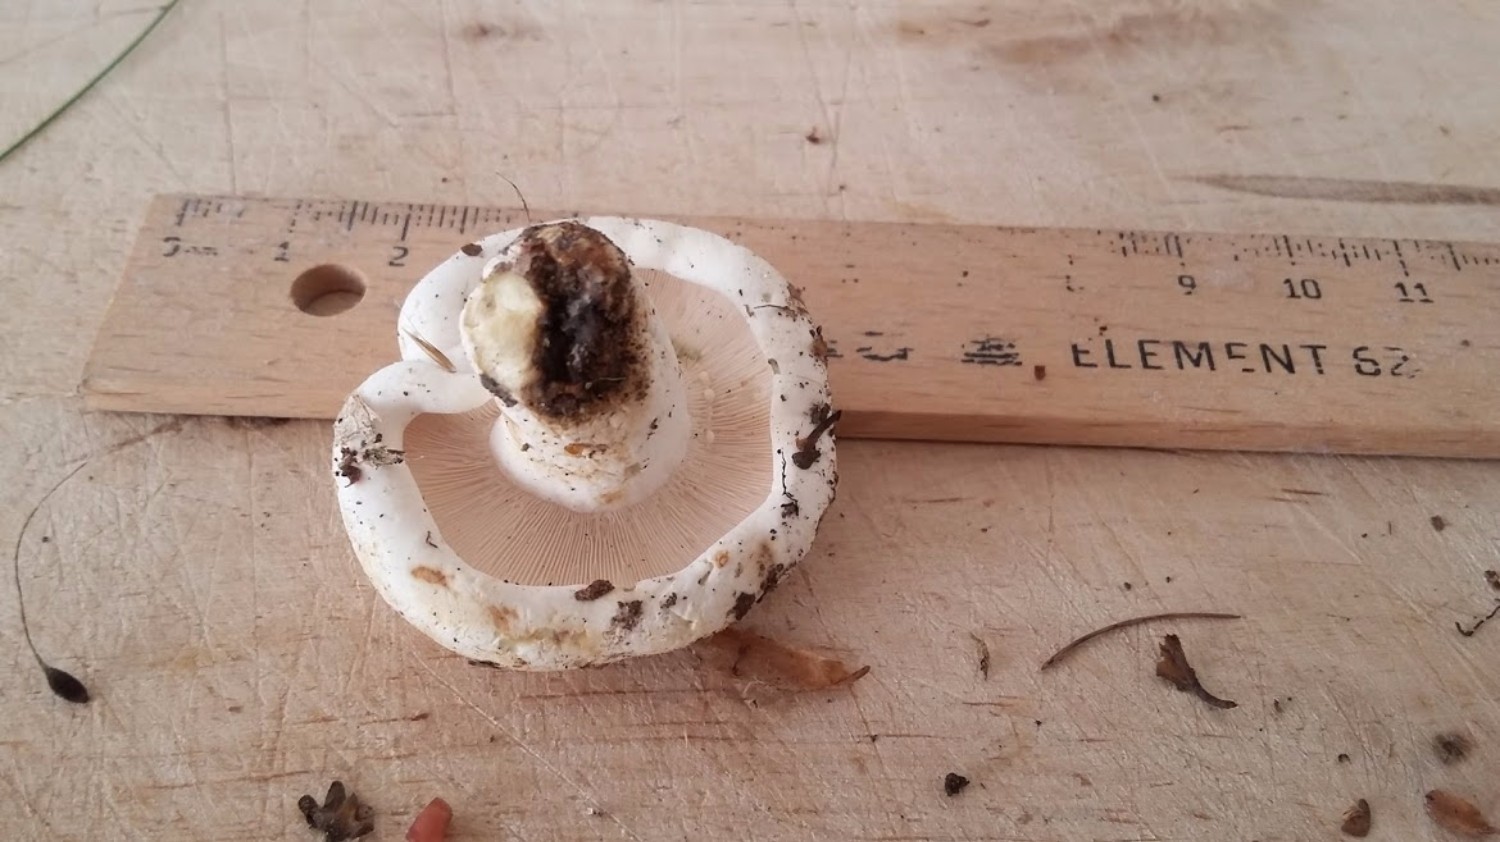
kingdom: Fungi
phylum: Basidiomycota
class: Agaricomycetes
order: Russulales
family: Russulaceae
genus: Lactifluus
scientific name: Lactifluus vellereus
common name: hvidfiltet mælkehat
